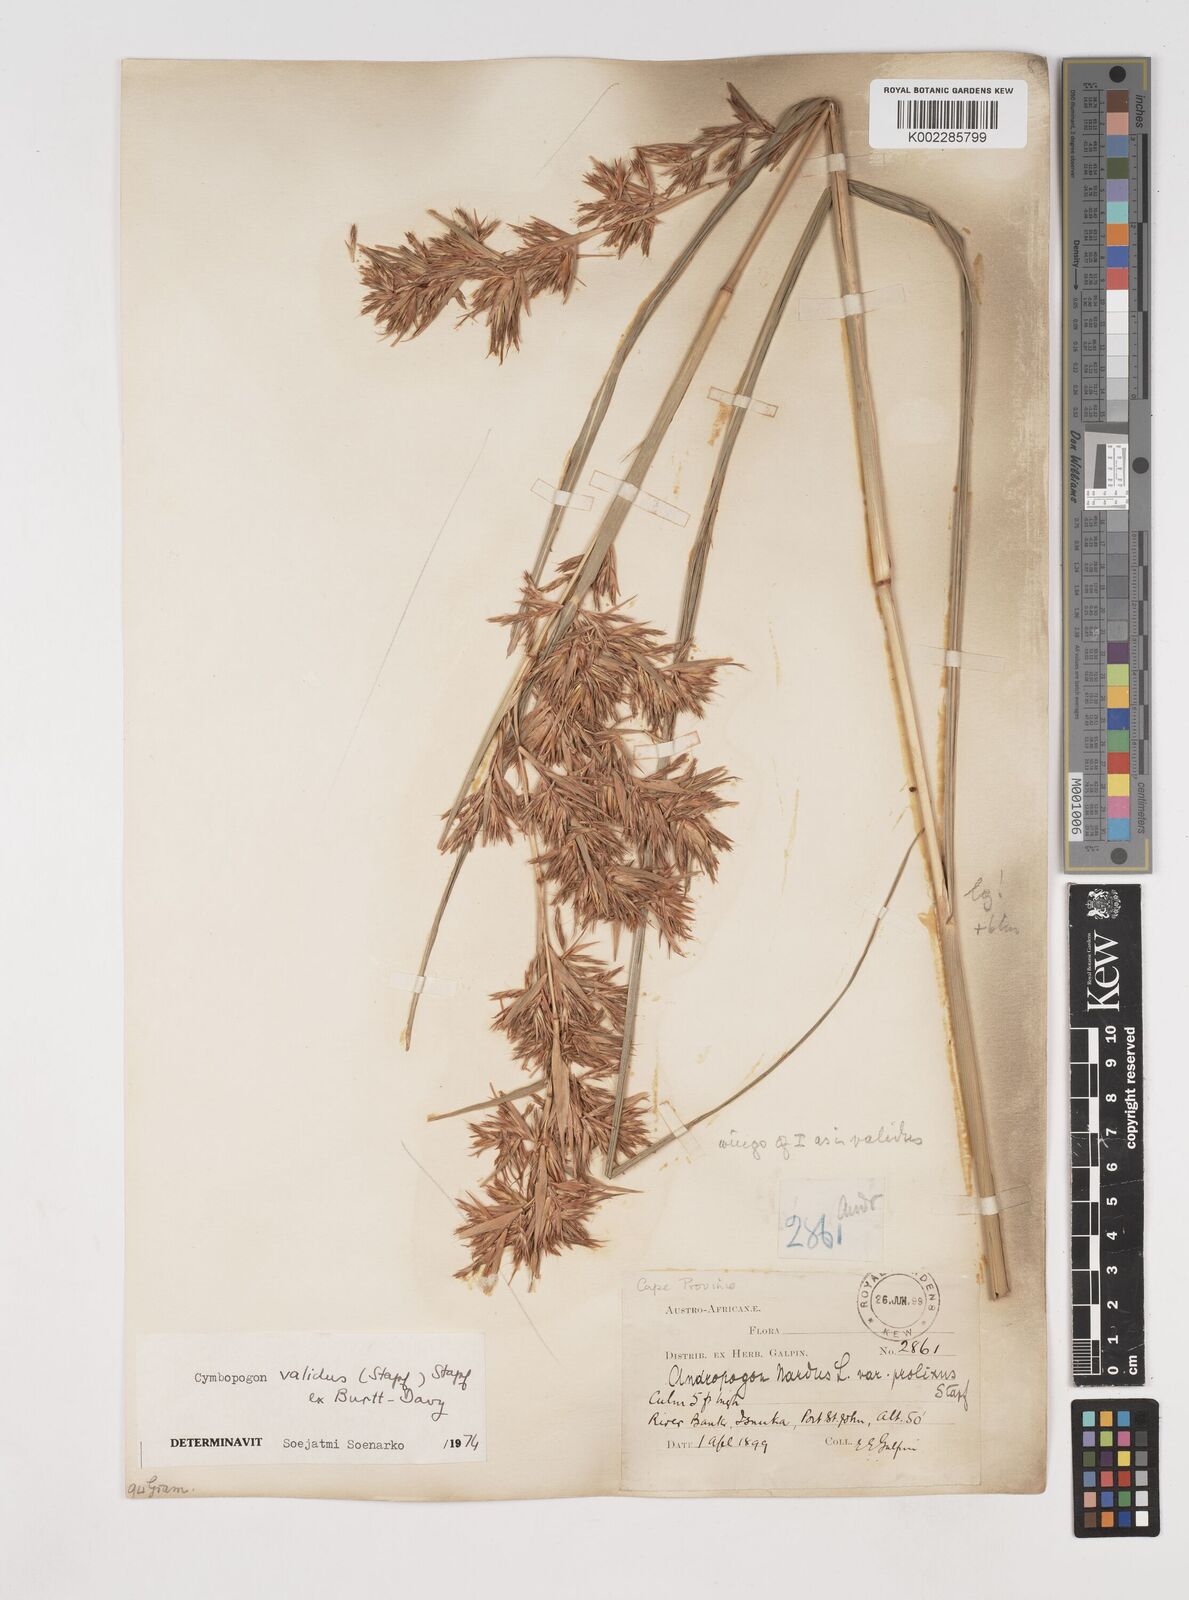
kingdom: Plantae
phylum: Tracheophyta
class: Liliopsida
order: Poales
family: Poaceae
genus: Cymbopogon
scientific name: Cymbopogon nardus
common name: Giant turpentine grass
